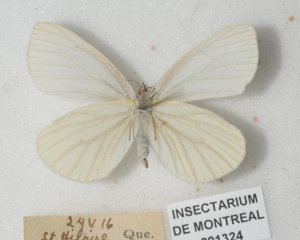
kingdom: Animalia
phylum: Arthropoda
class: Insecta
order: Lepidoptera
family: Pieridae
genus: Pieris
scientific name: Pieris oleracea
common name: Mustard White
